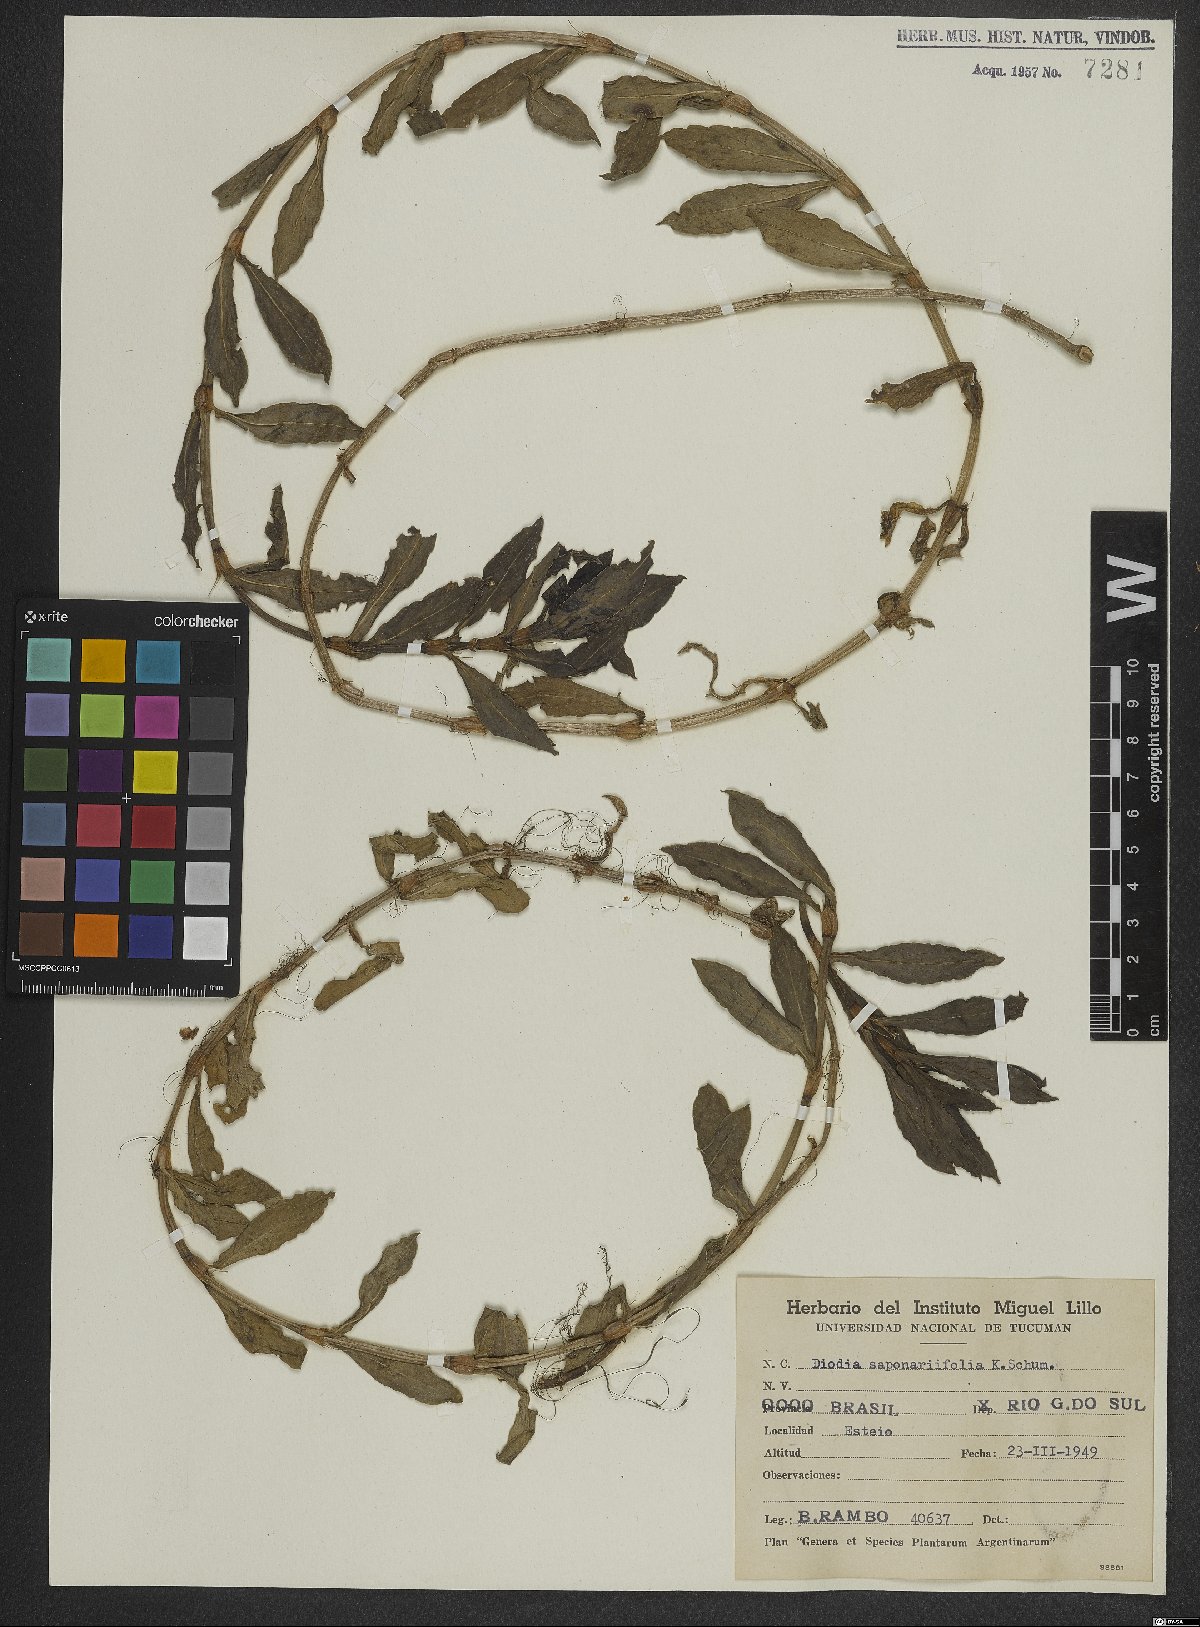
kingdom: Plantae
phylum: Tracheophyta
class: Magnoliopsida
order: Gentianales
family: Rubiaceae
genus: Diodia
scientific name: Diodia saponariifolia
